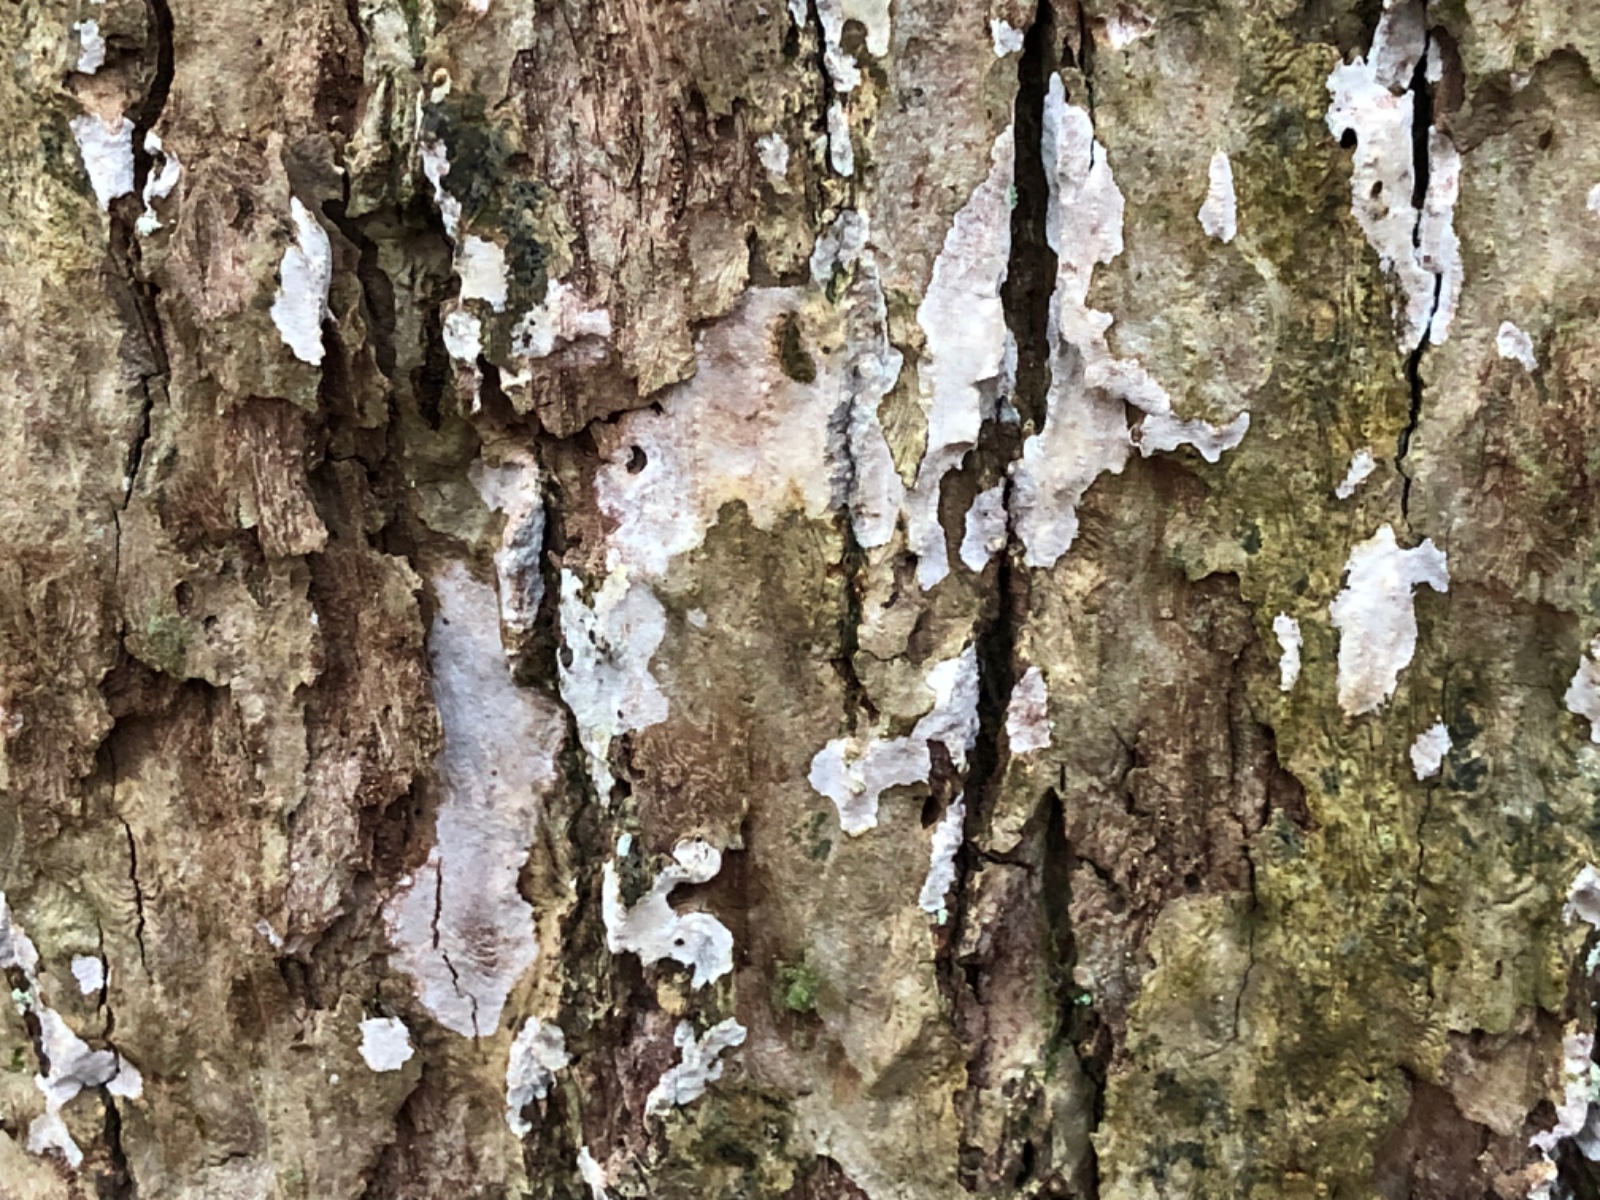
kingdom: Fungi
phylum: Basidiomycota
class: Agaricomycetes
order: Agaricales
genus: Dendrothele
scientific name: Dendrothele commixta
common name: ege-kalkplet
